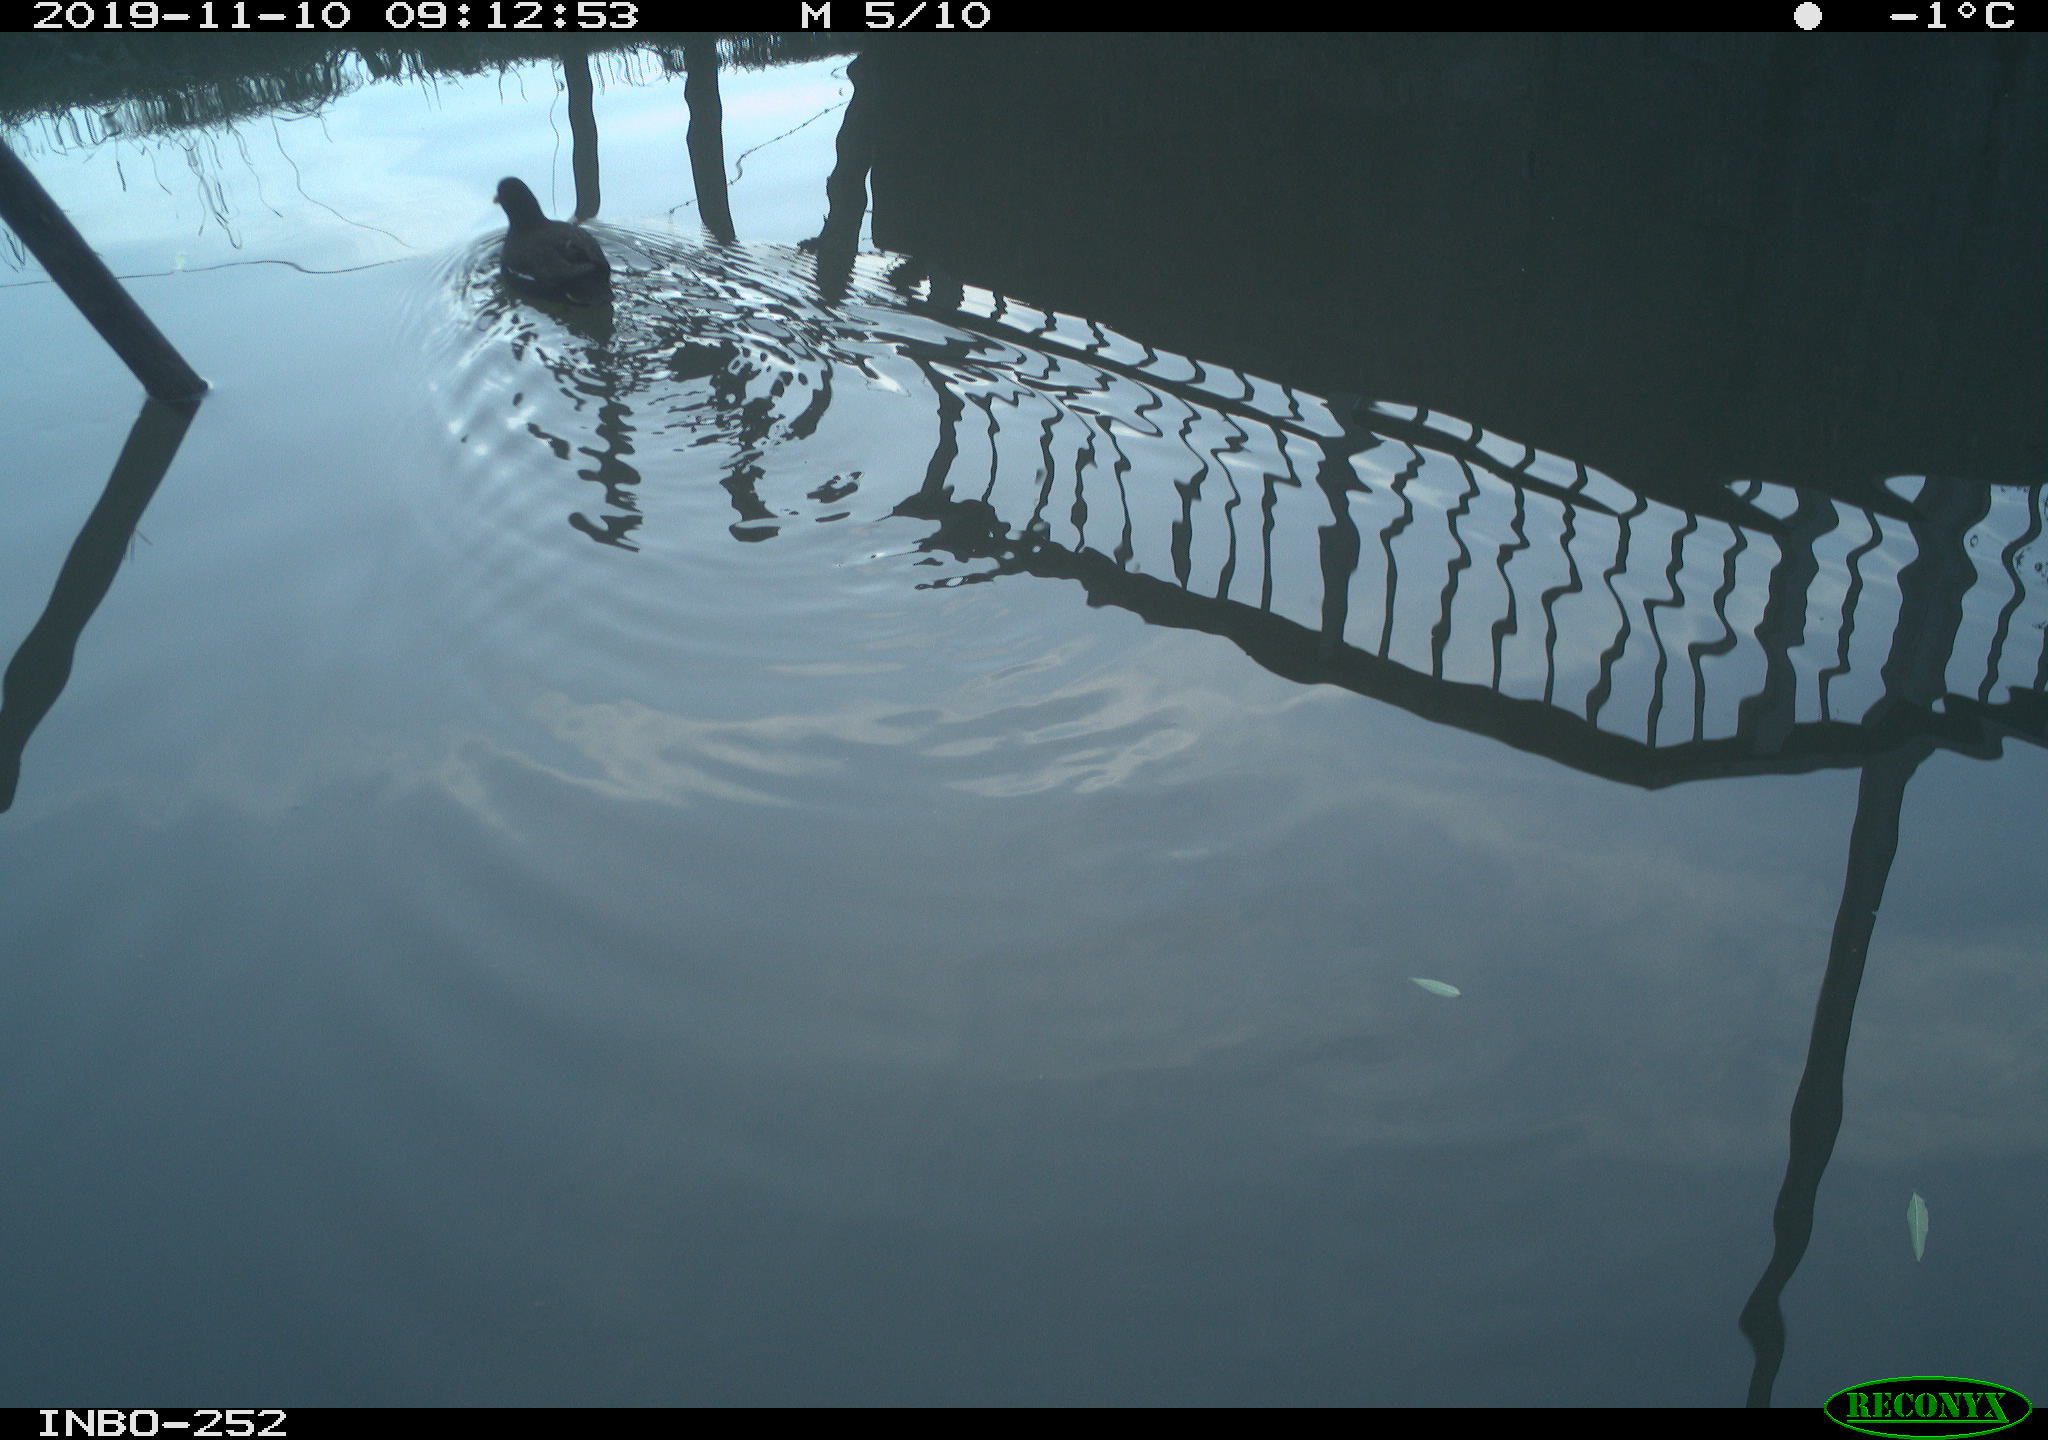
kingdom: Animalia
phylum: Chordata
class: Aves
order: Gruiformes
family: Rallidae
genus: Gallinula
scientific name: Gallinula chloropus
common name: Common moorhen
